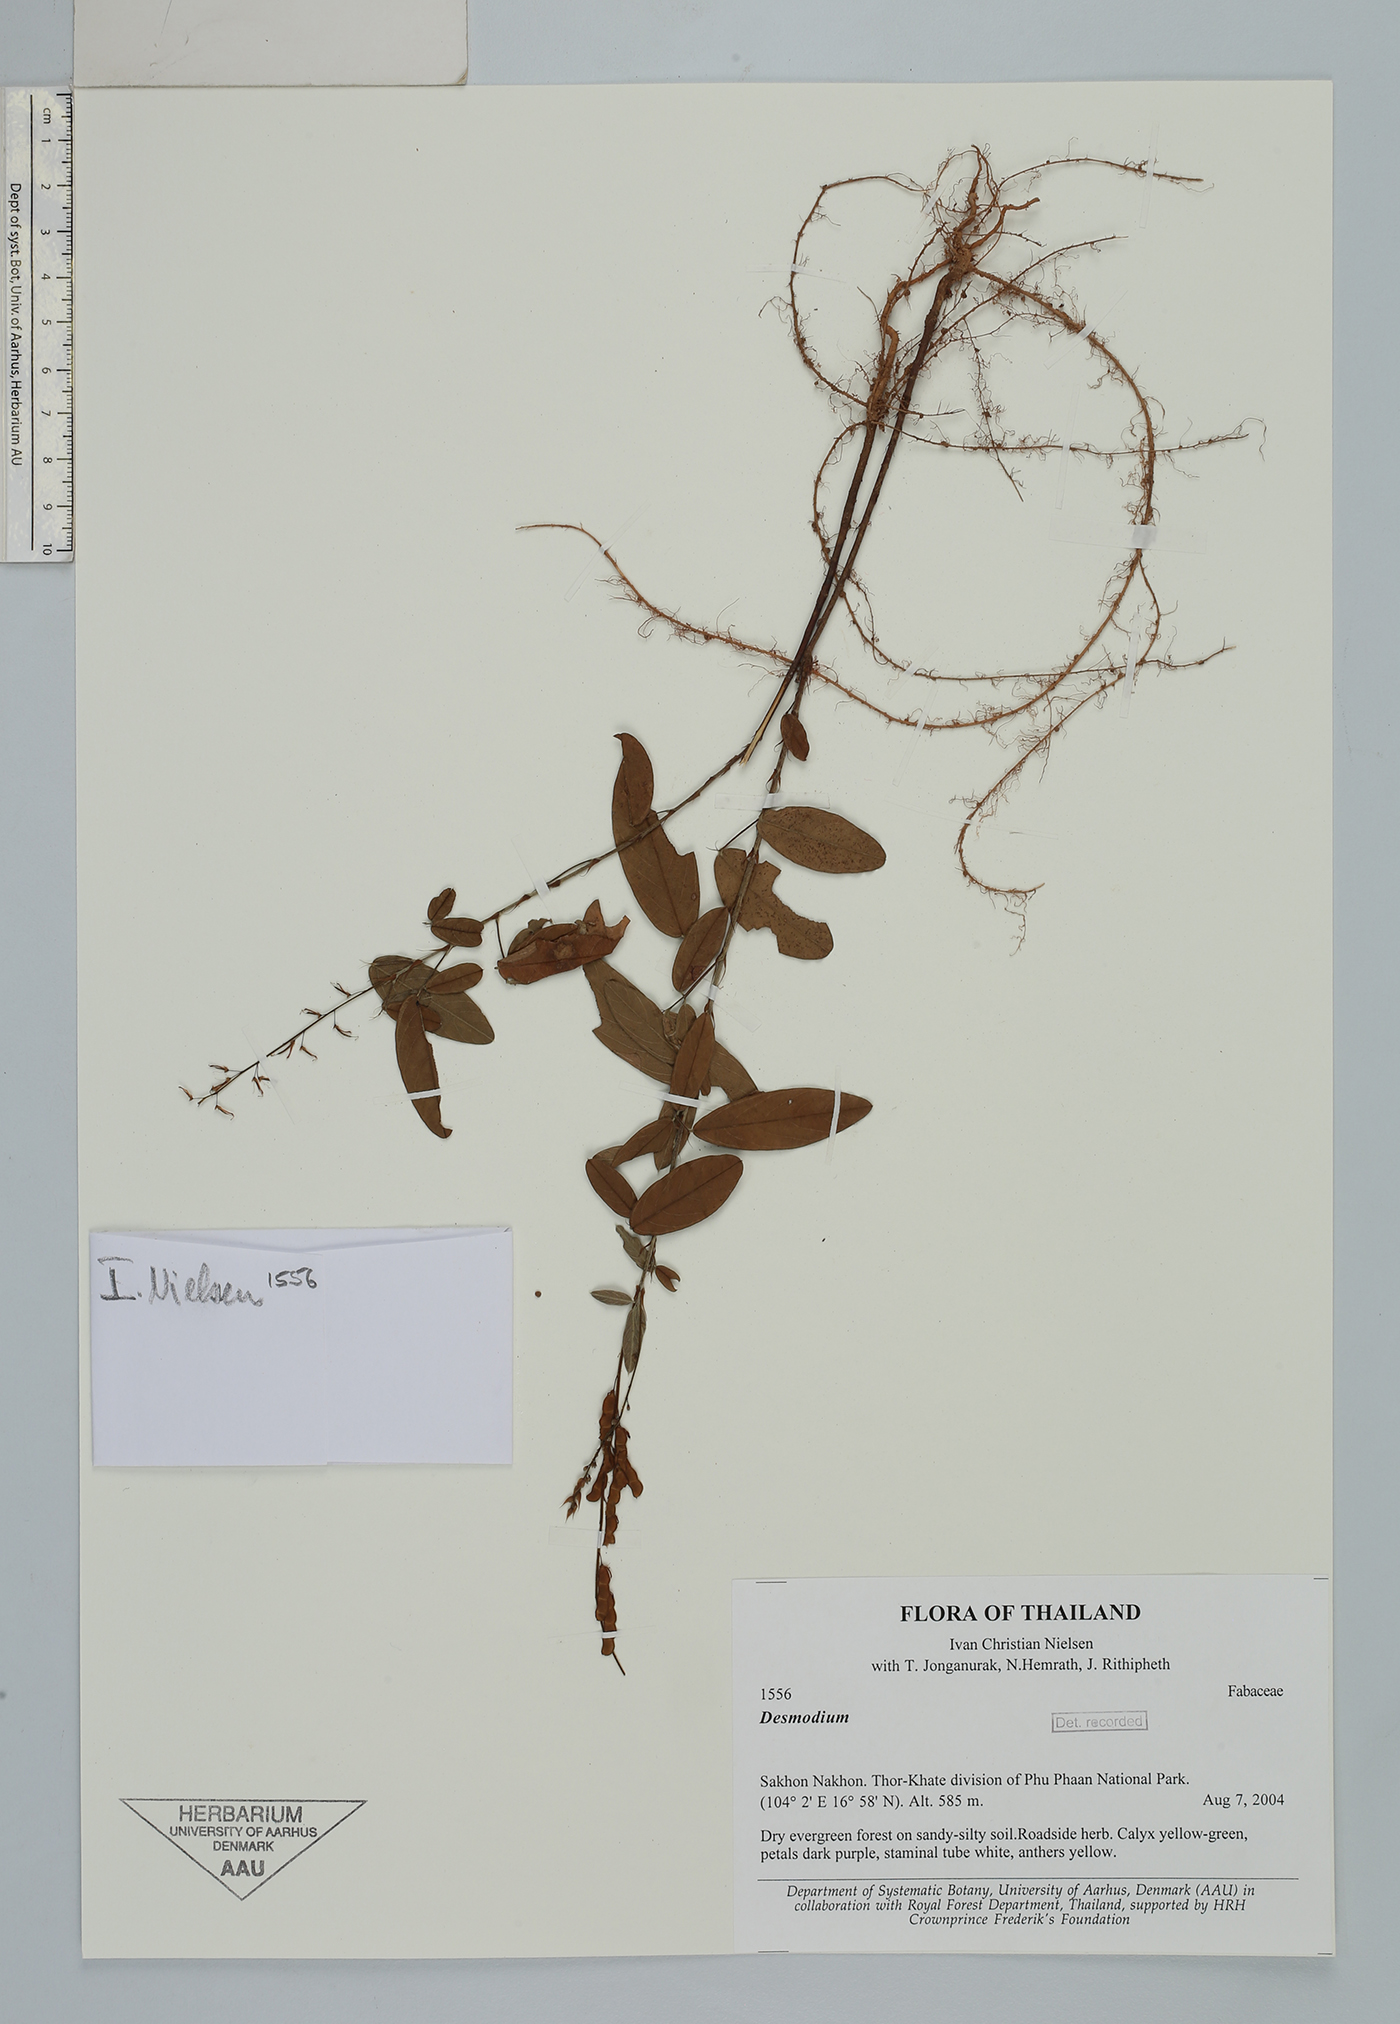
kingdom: Plantae
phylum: Tracheophyta
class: Magnoliopsida
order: Fabales
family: Fabaceae
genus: Grona
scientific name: Grona heterocarpos
